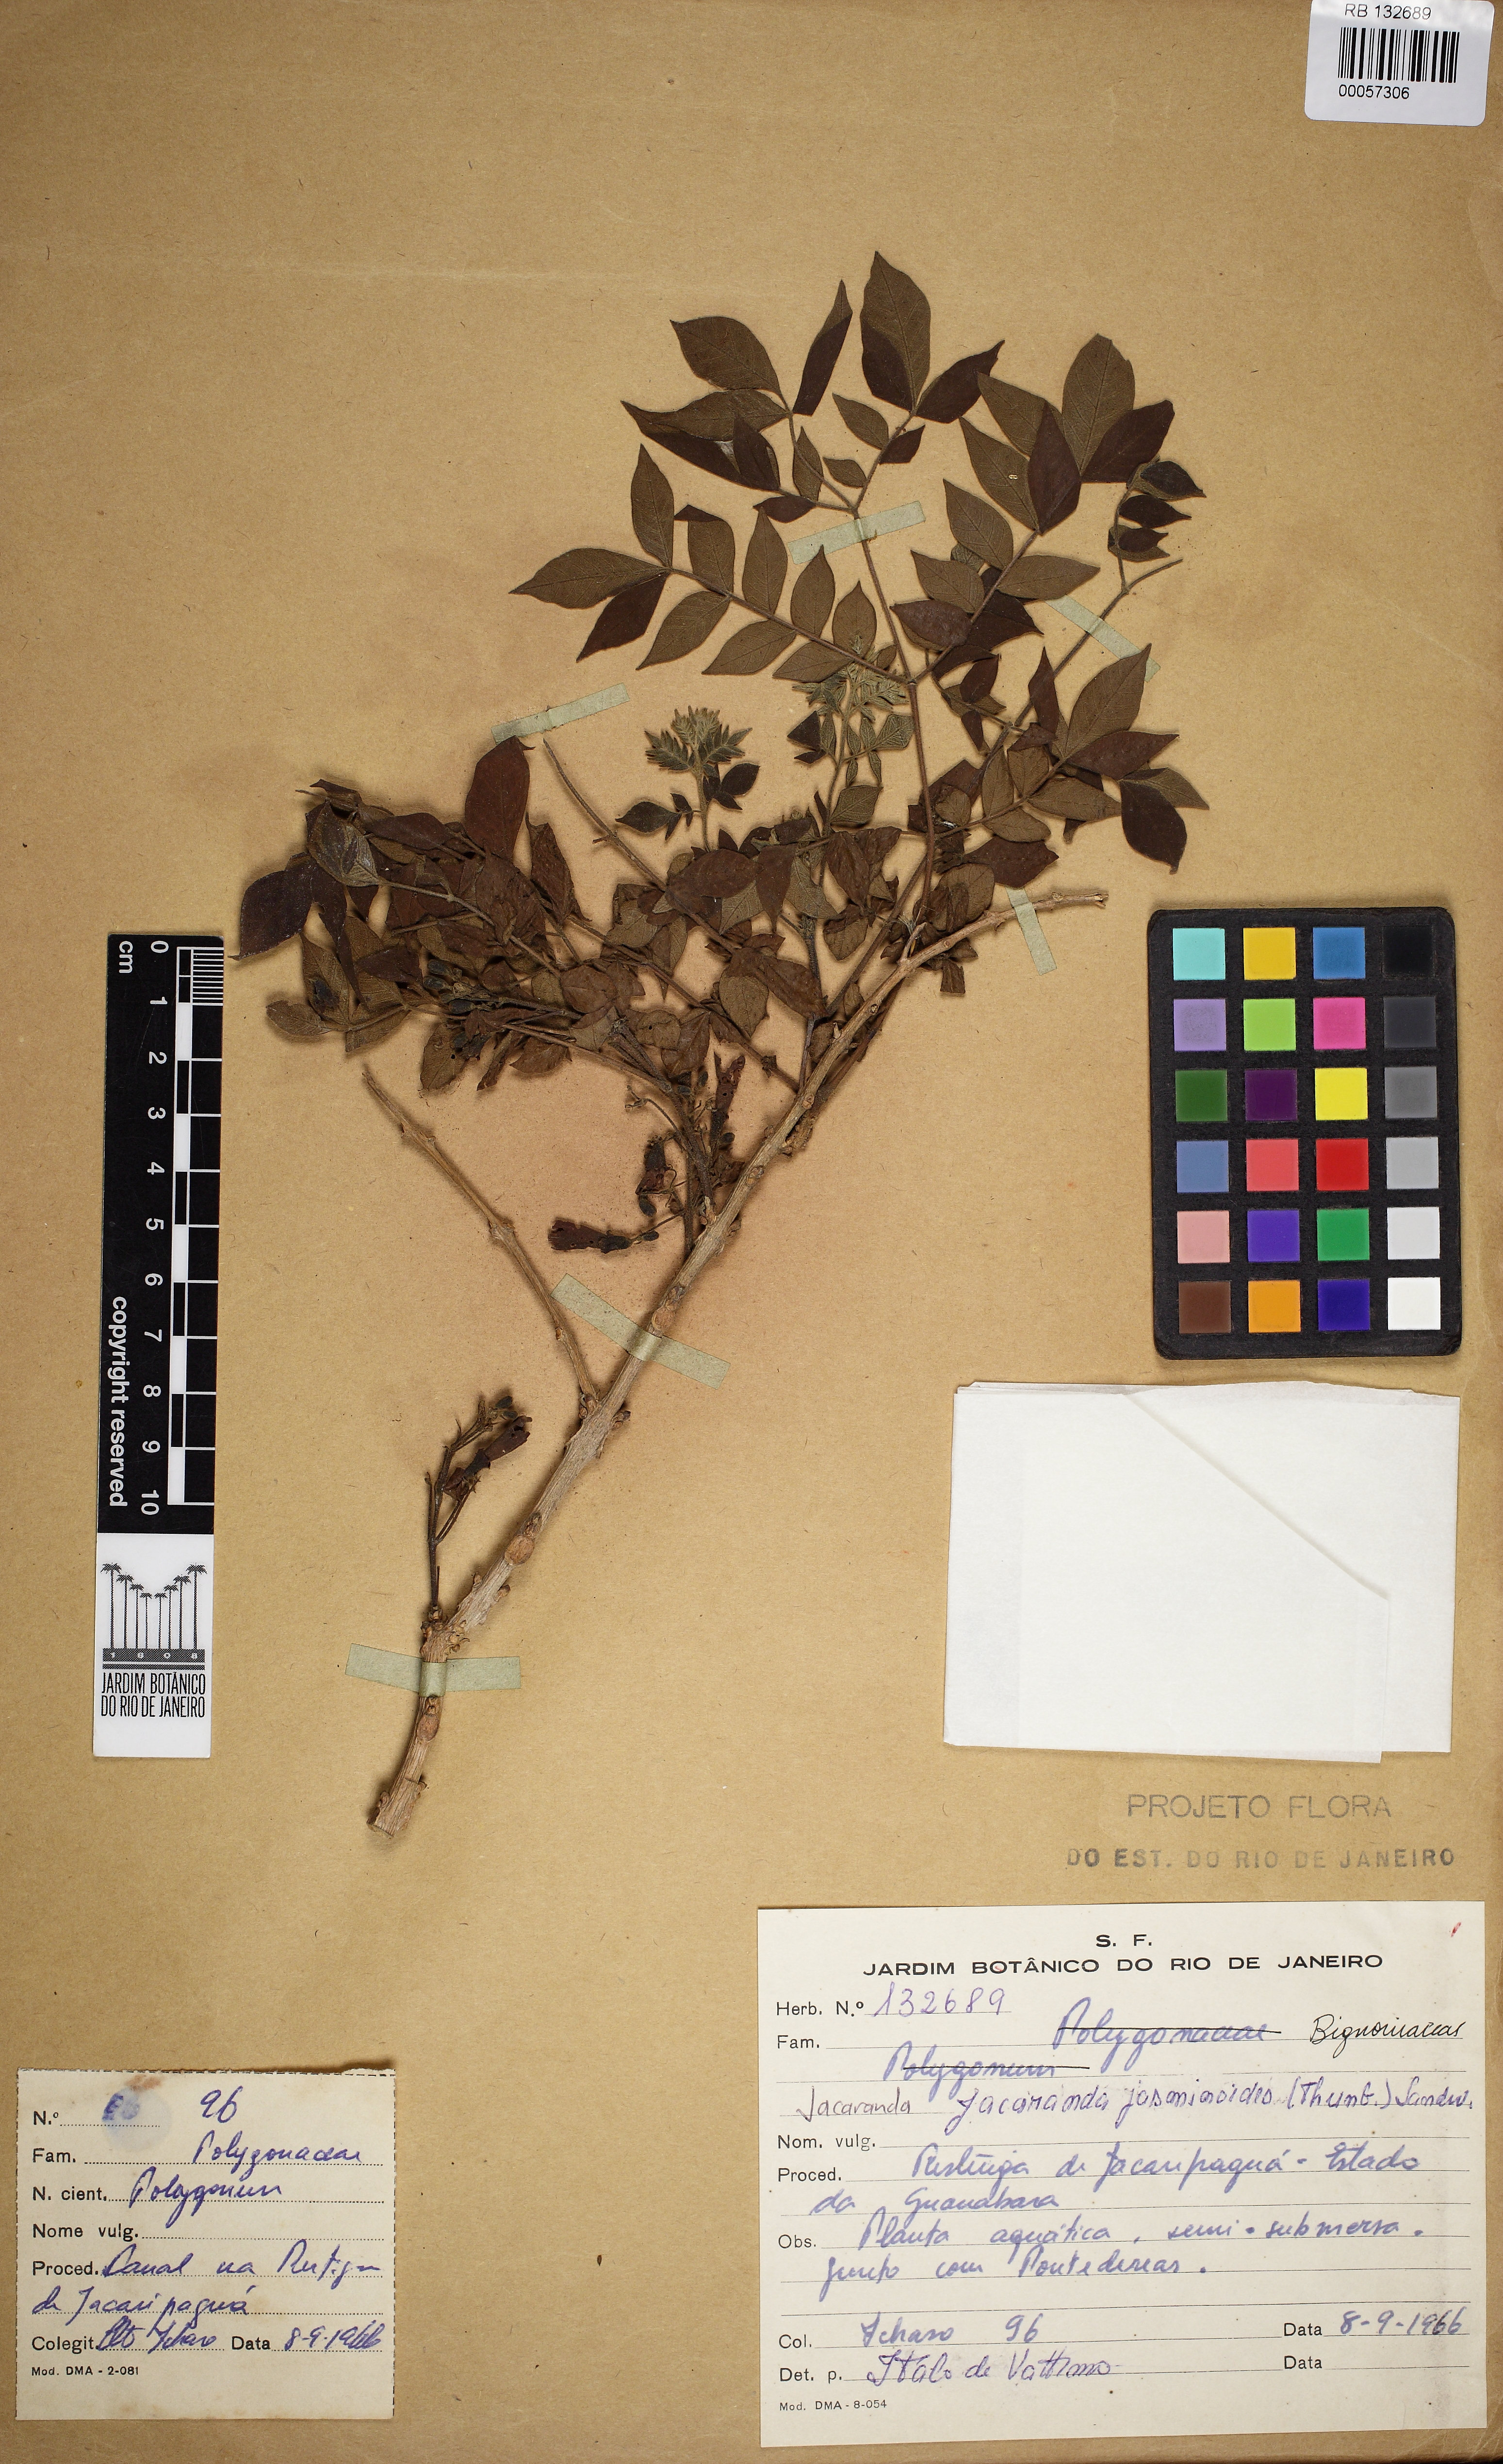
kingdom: Plantae
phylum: Tracheophyta
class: Magnoliopsida
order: Lamiales
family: Bignoniaceae
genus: Jacaranda
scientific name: Jacaranda jasminoides
